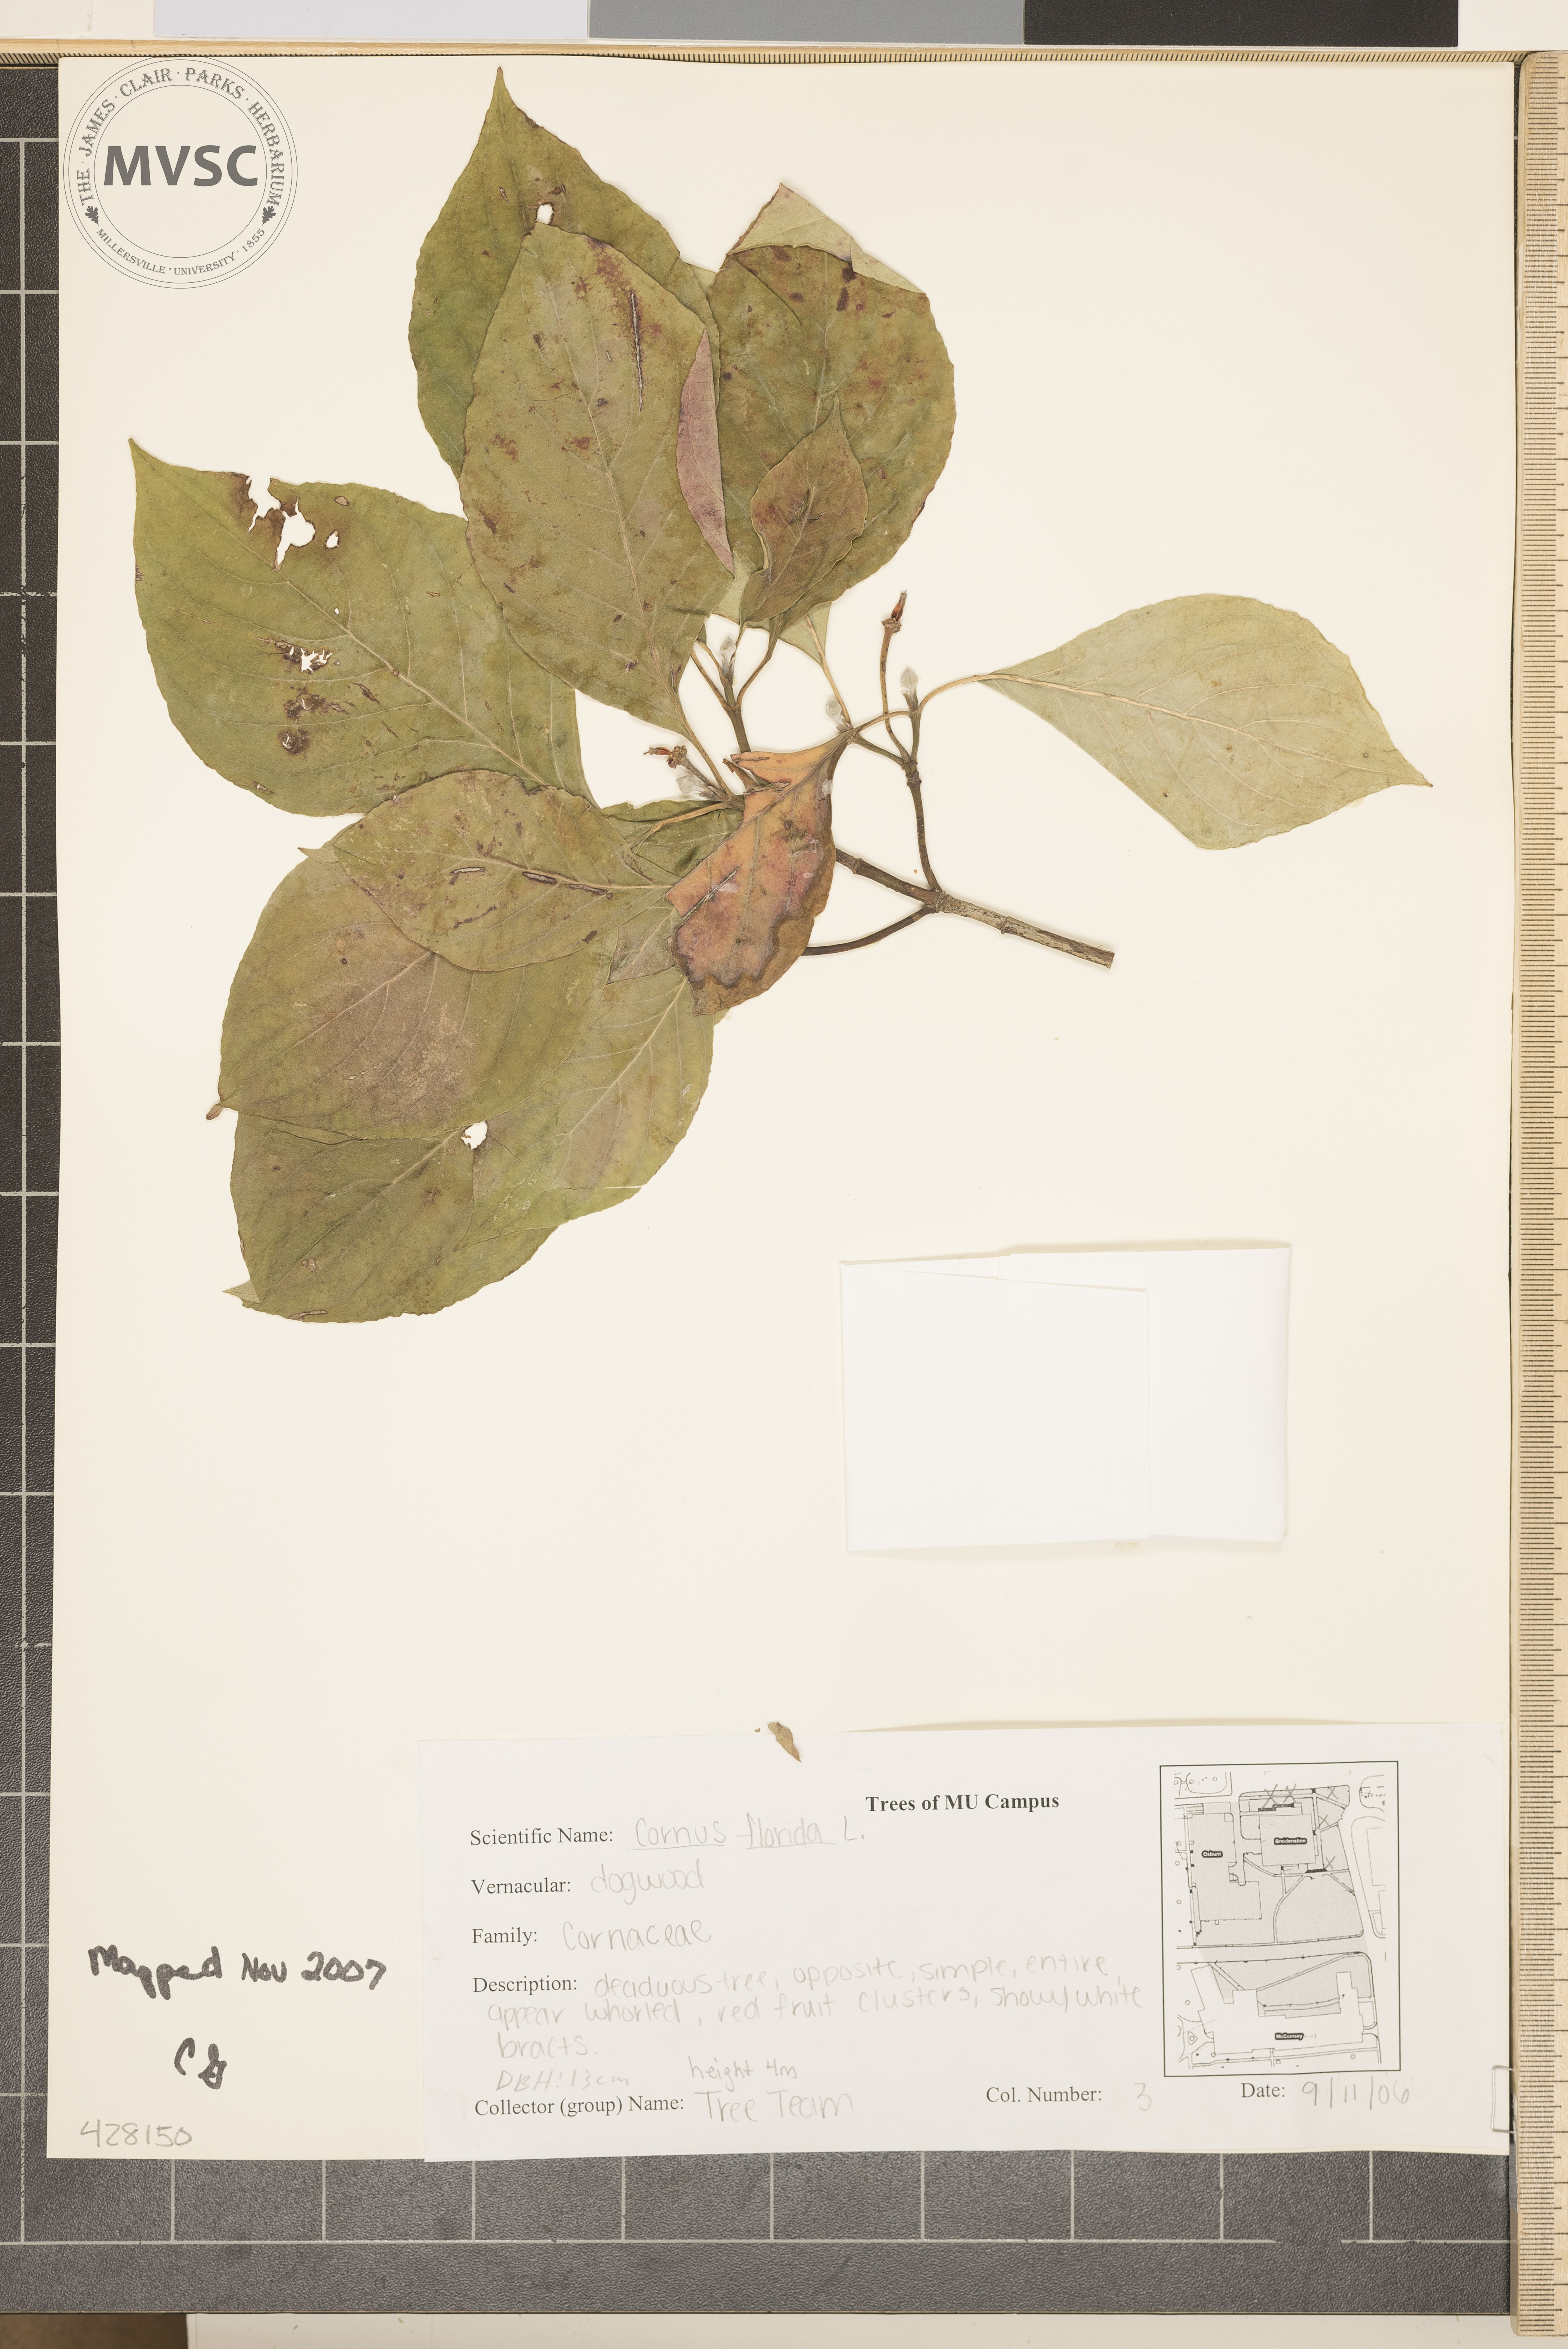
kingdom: Plantae
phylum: Tracheophyta
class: Magnoliopsida
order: Cornales
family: Cornaceae
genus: Cornus
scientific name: Cornus florida
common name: Flowering Dogwood
